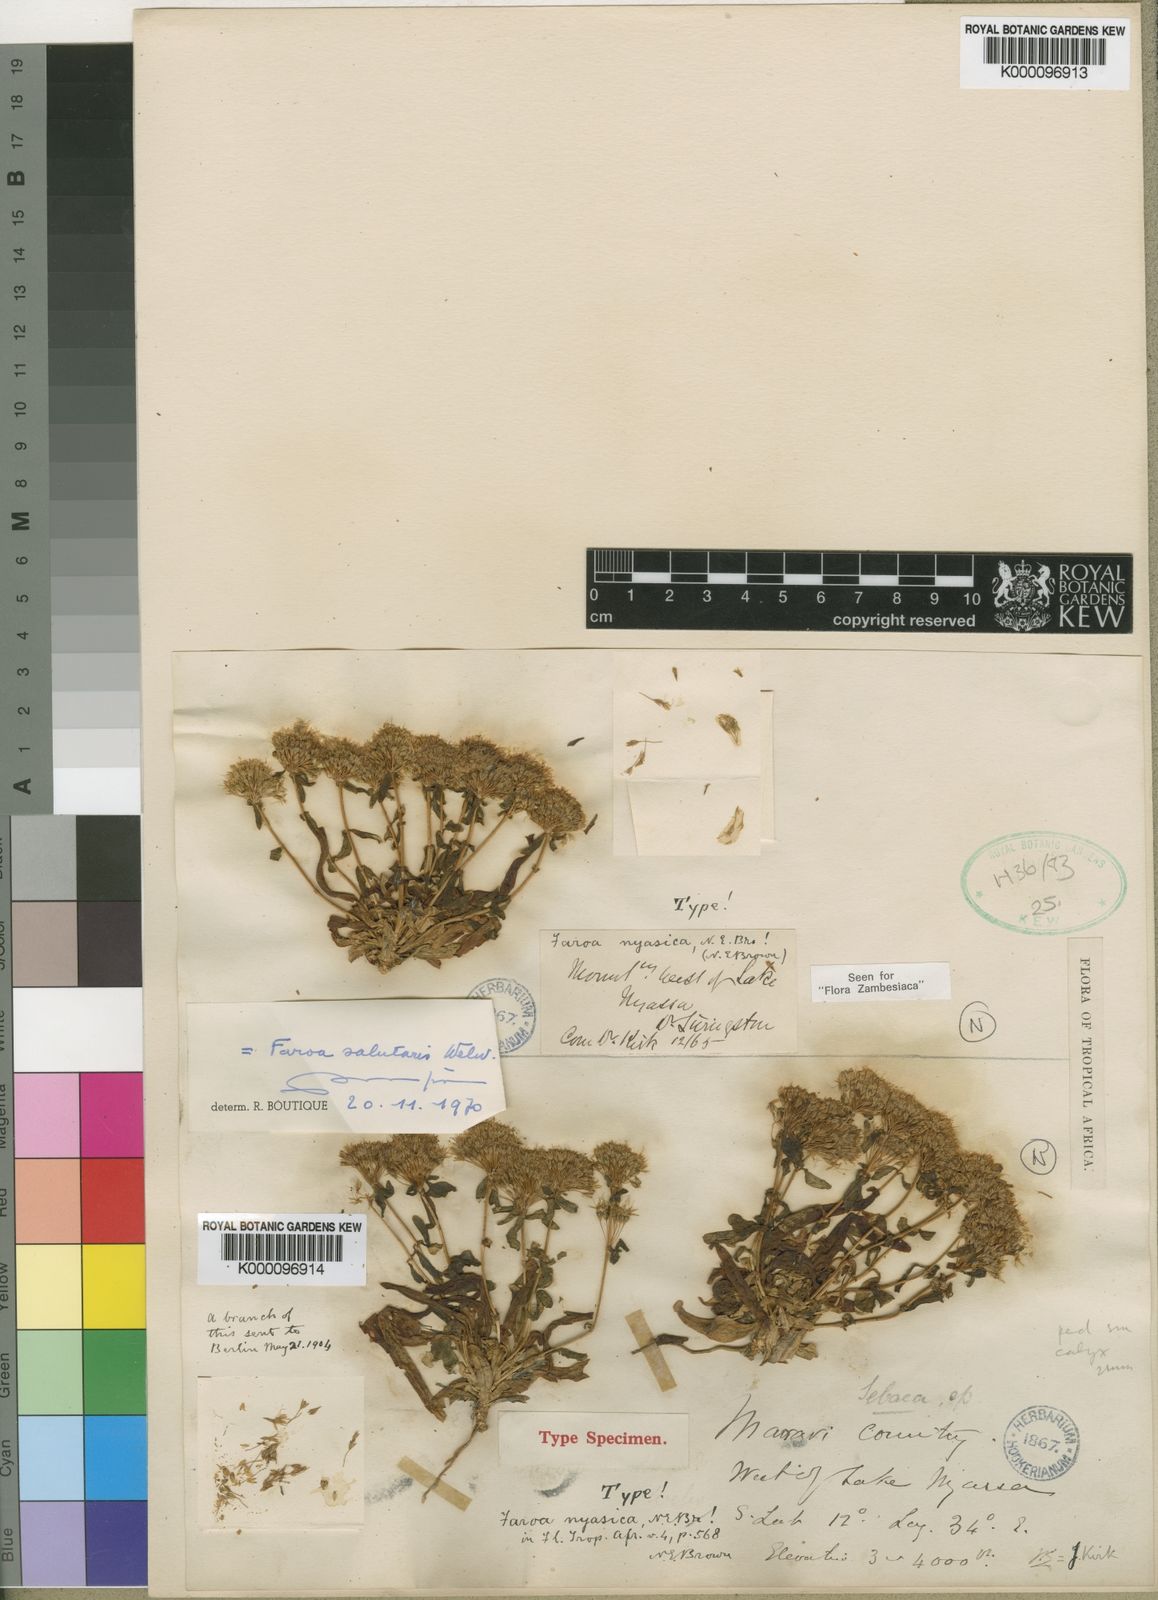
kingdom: Plantae
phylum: Tracheophyta
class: Magnoliopsida
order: Gentianales
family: Gentianaceae
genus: Faroa
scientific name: Faroa salutaris
